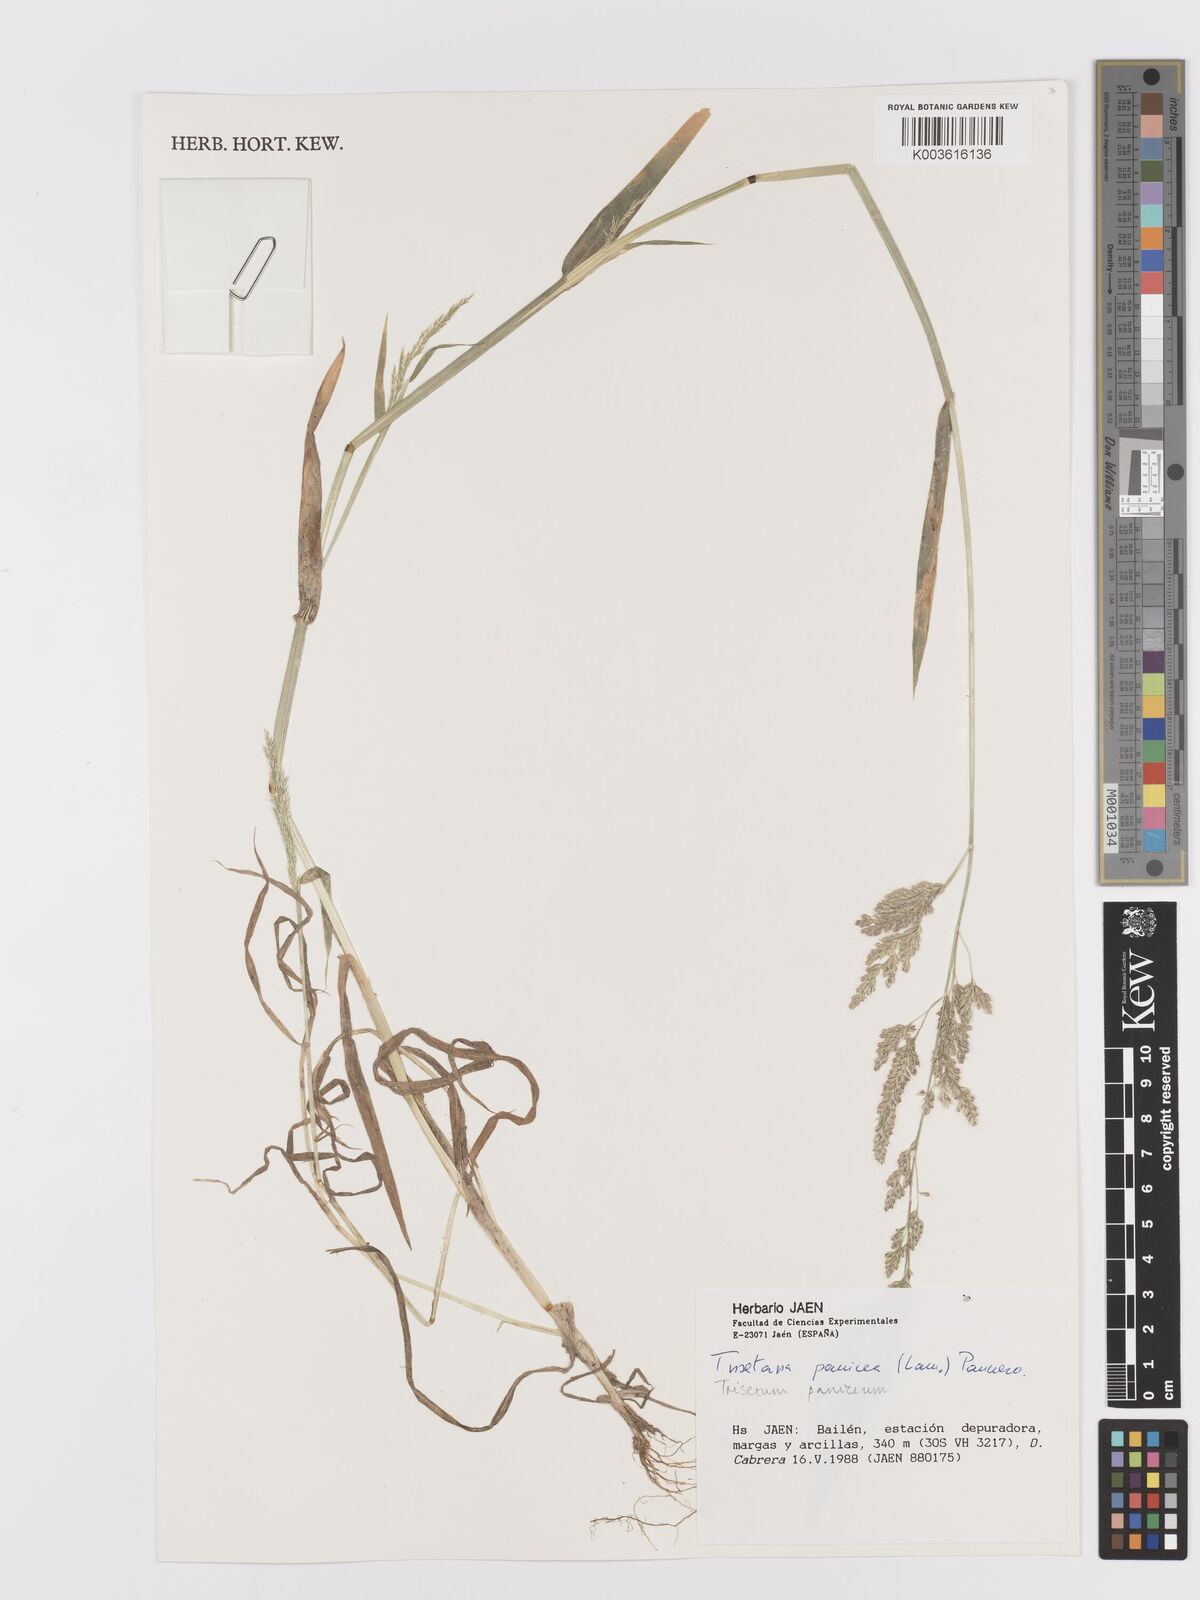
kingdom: Plantae
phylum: Tracheophyta
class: Liliopsida
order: Poales
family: Poaceae
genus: Trisetaria
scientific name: Trisetaria panicea
